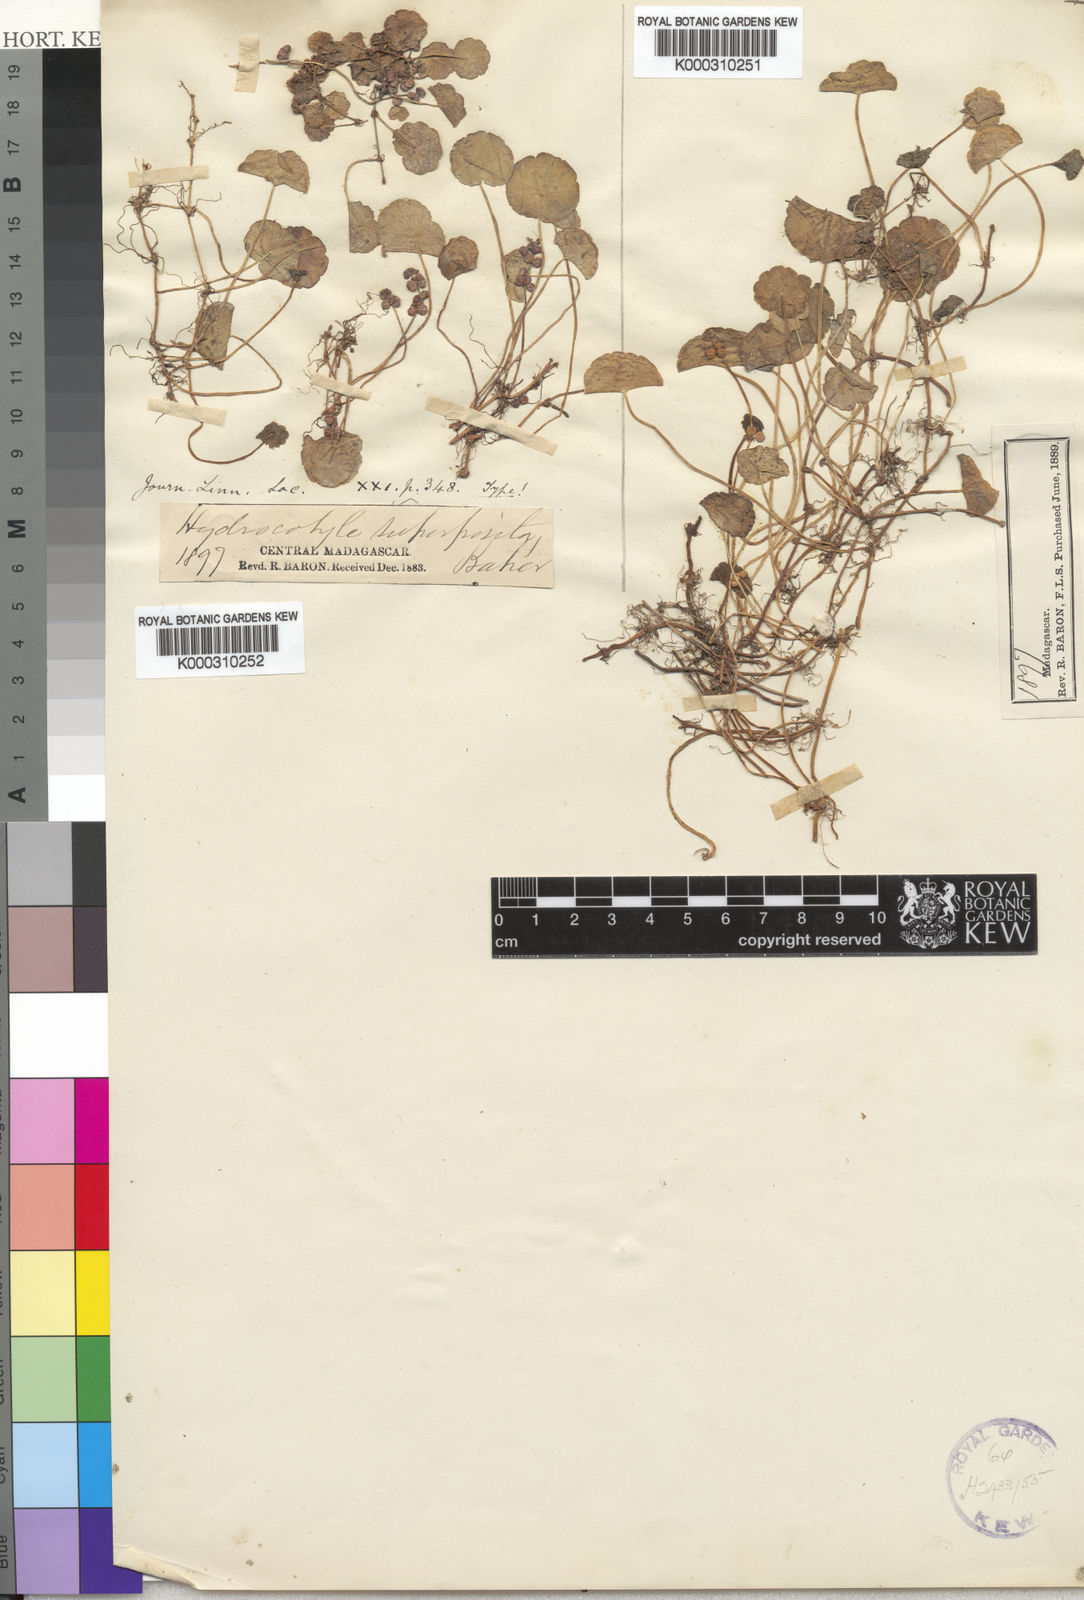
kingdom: Plantae
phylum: Tracheophyta
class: Magnoliopsida
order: Apiales
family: Araliaceae
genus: Hydrocotyle
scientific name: Hydrocotyle verticillata
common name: Whorled marshpennywort
